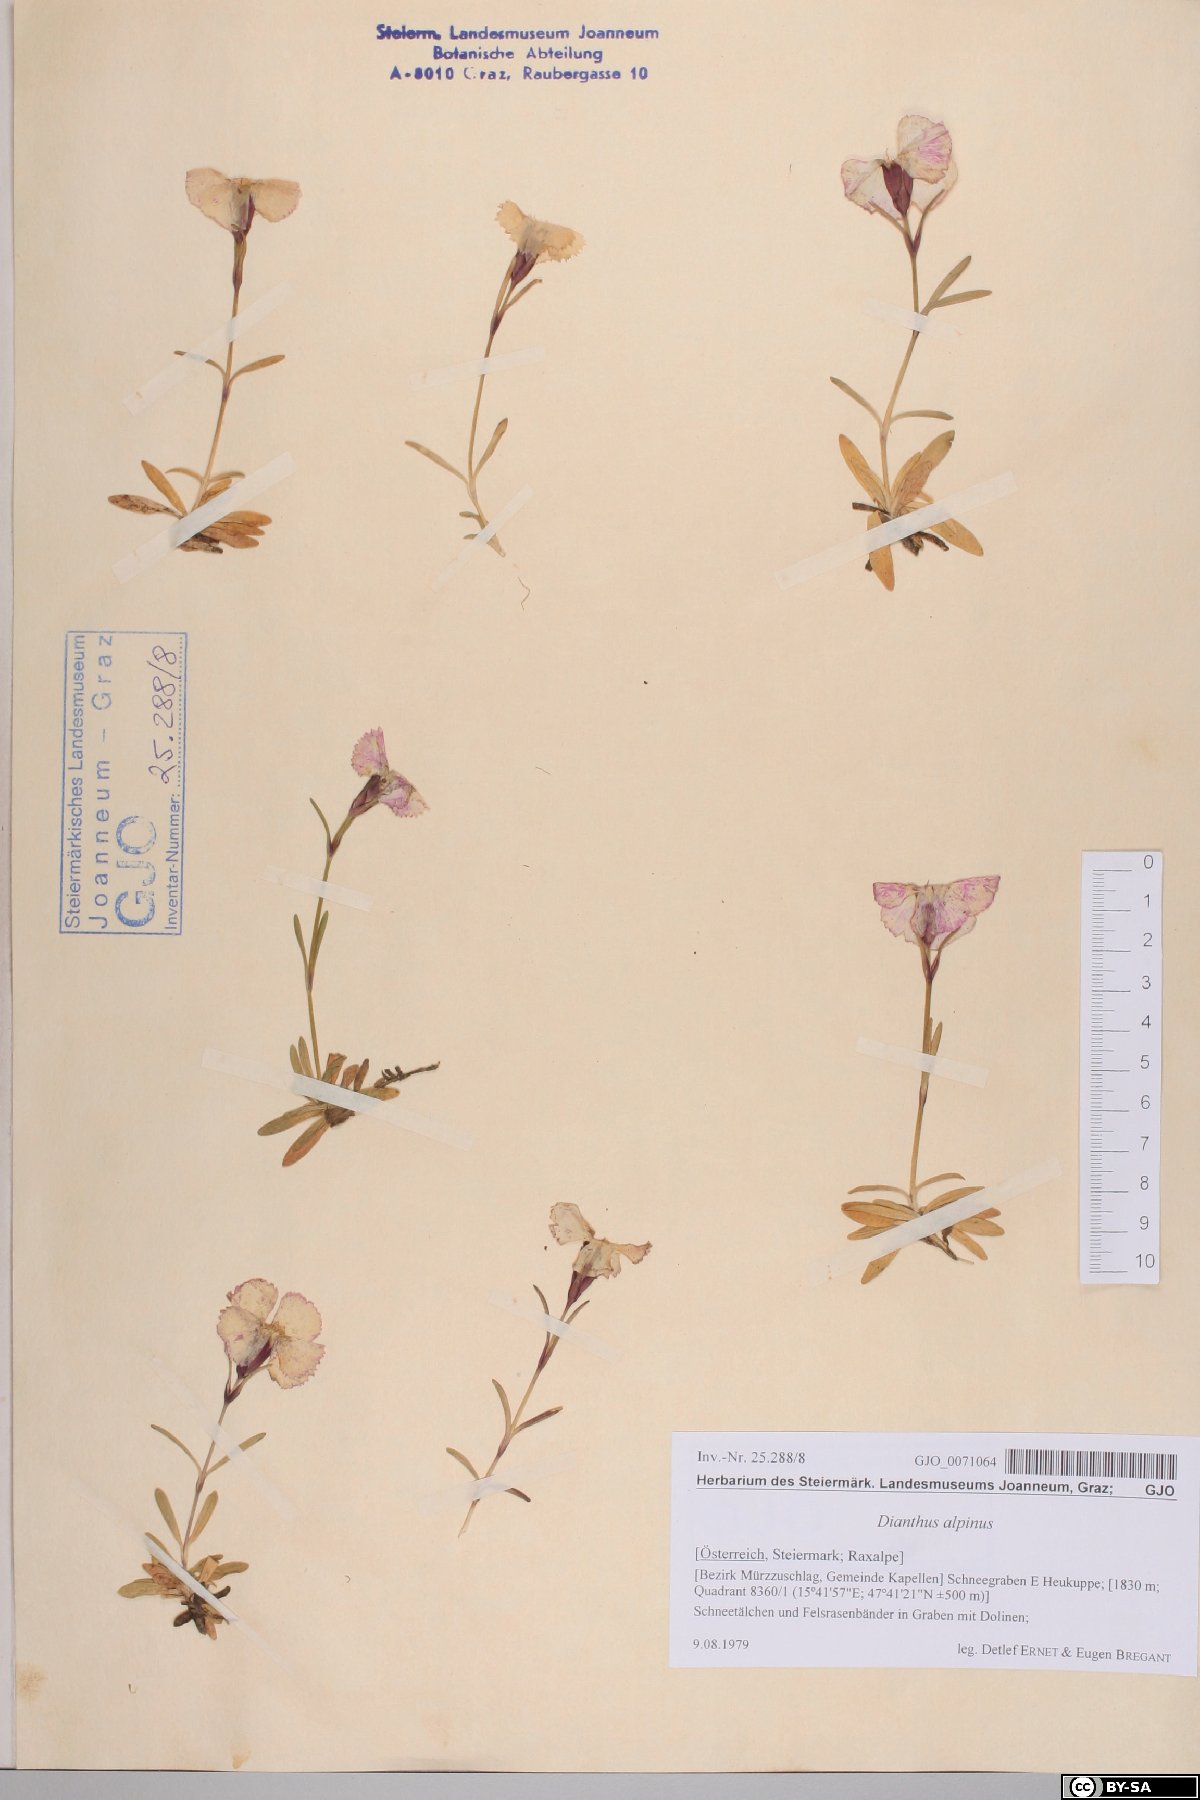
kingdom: Plantae
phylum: Tracheophyta
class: Magnoliopsida
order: Caryophyllales
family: Caryophyllaceae
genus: Dianthus
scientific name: Dianthus alpinus
